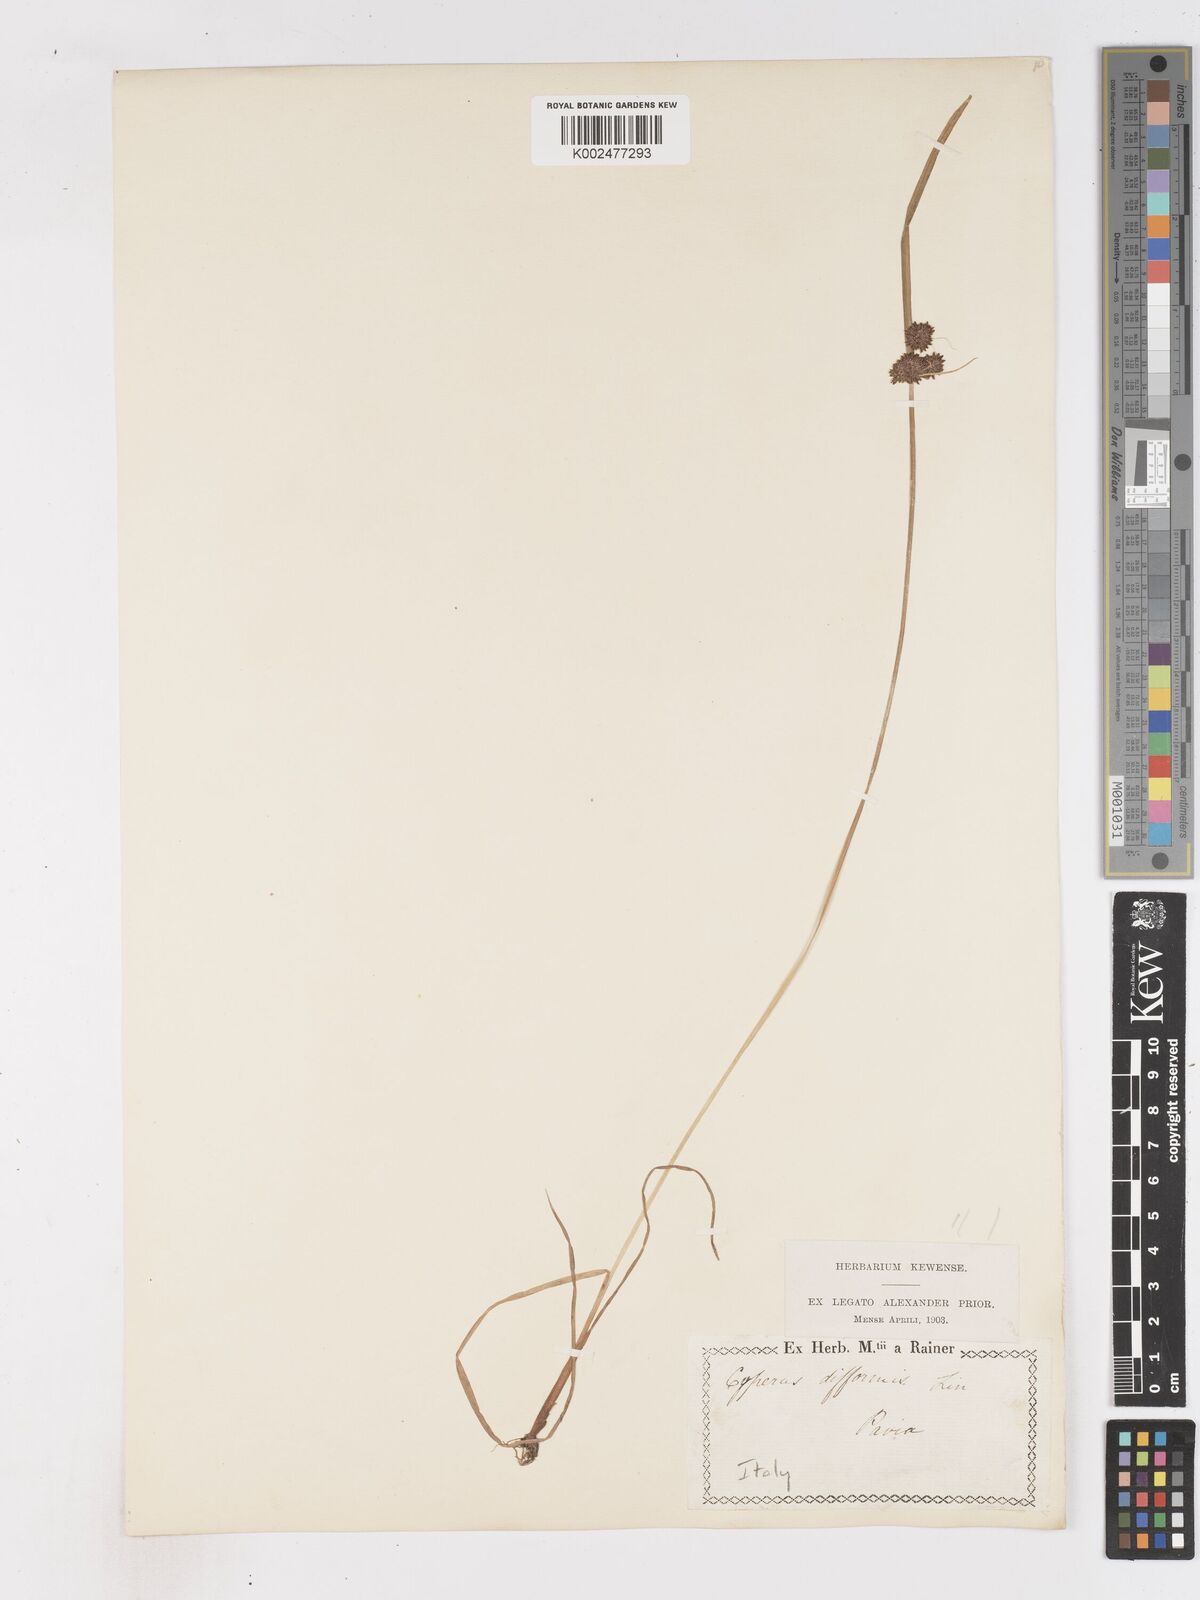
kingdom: Plantae
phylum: Tracheophyta
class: Liliopsida
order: Poales
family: Cyperaceae
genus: Cyperus
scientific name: Cyperus difformis
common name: Variable flatsedge
